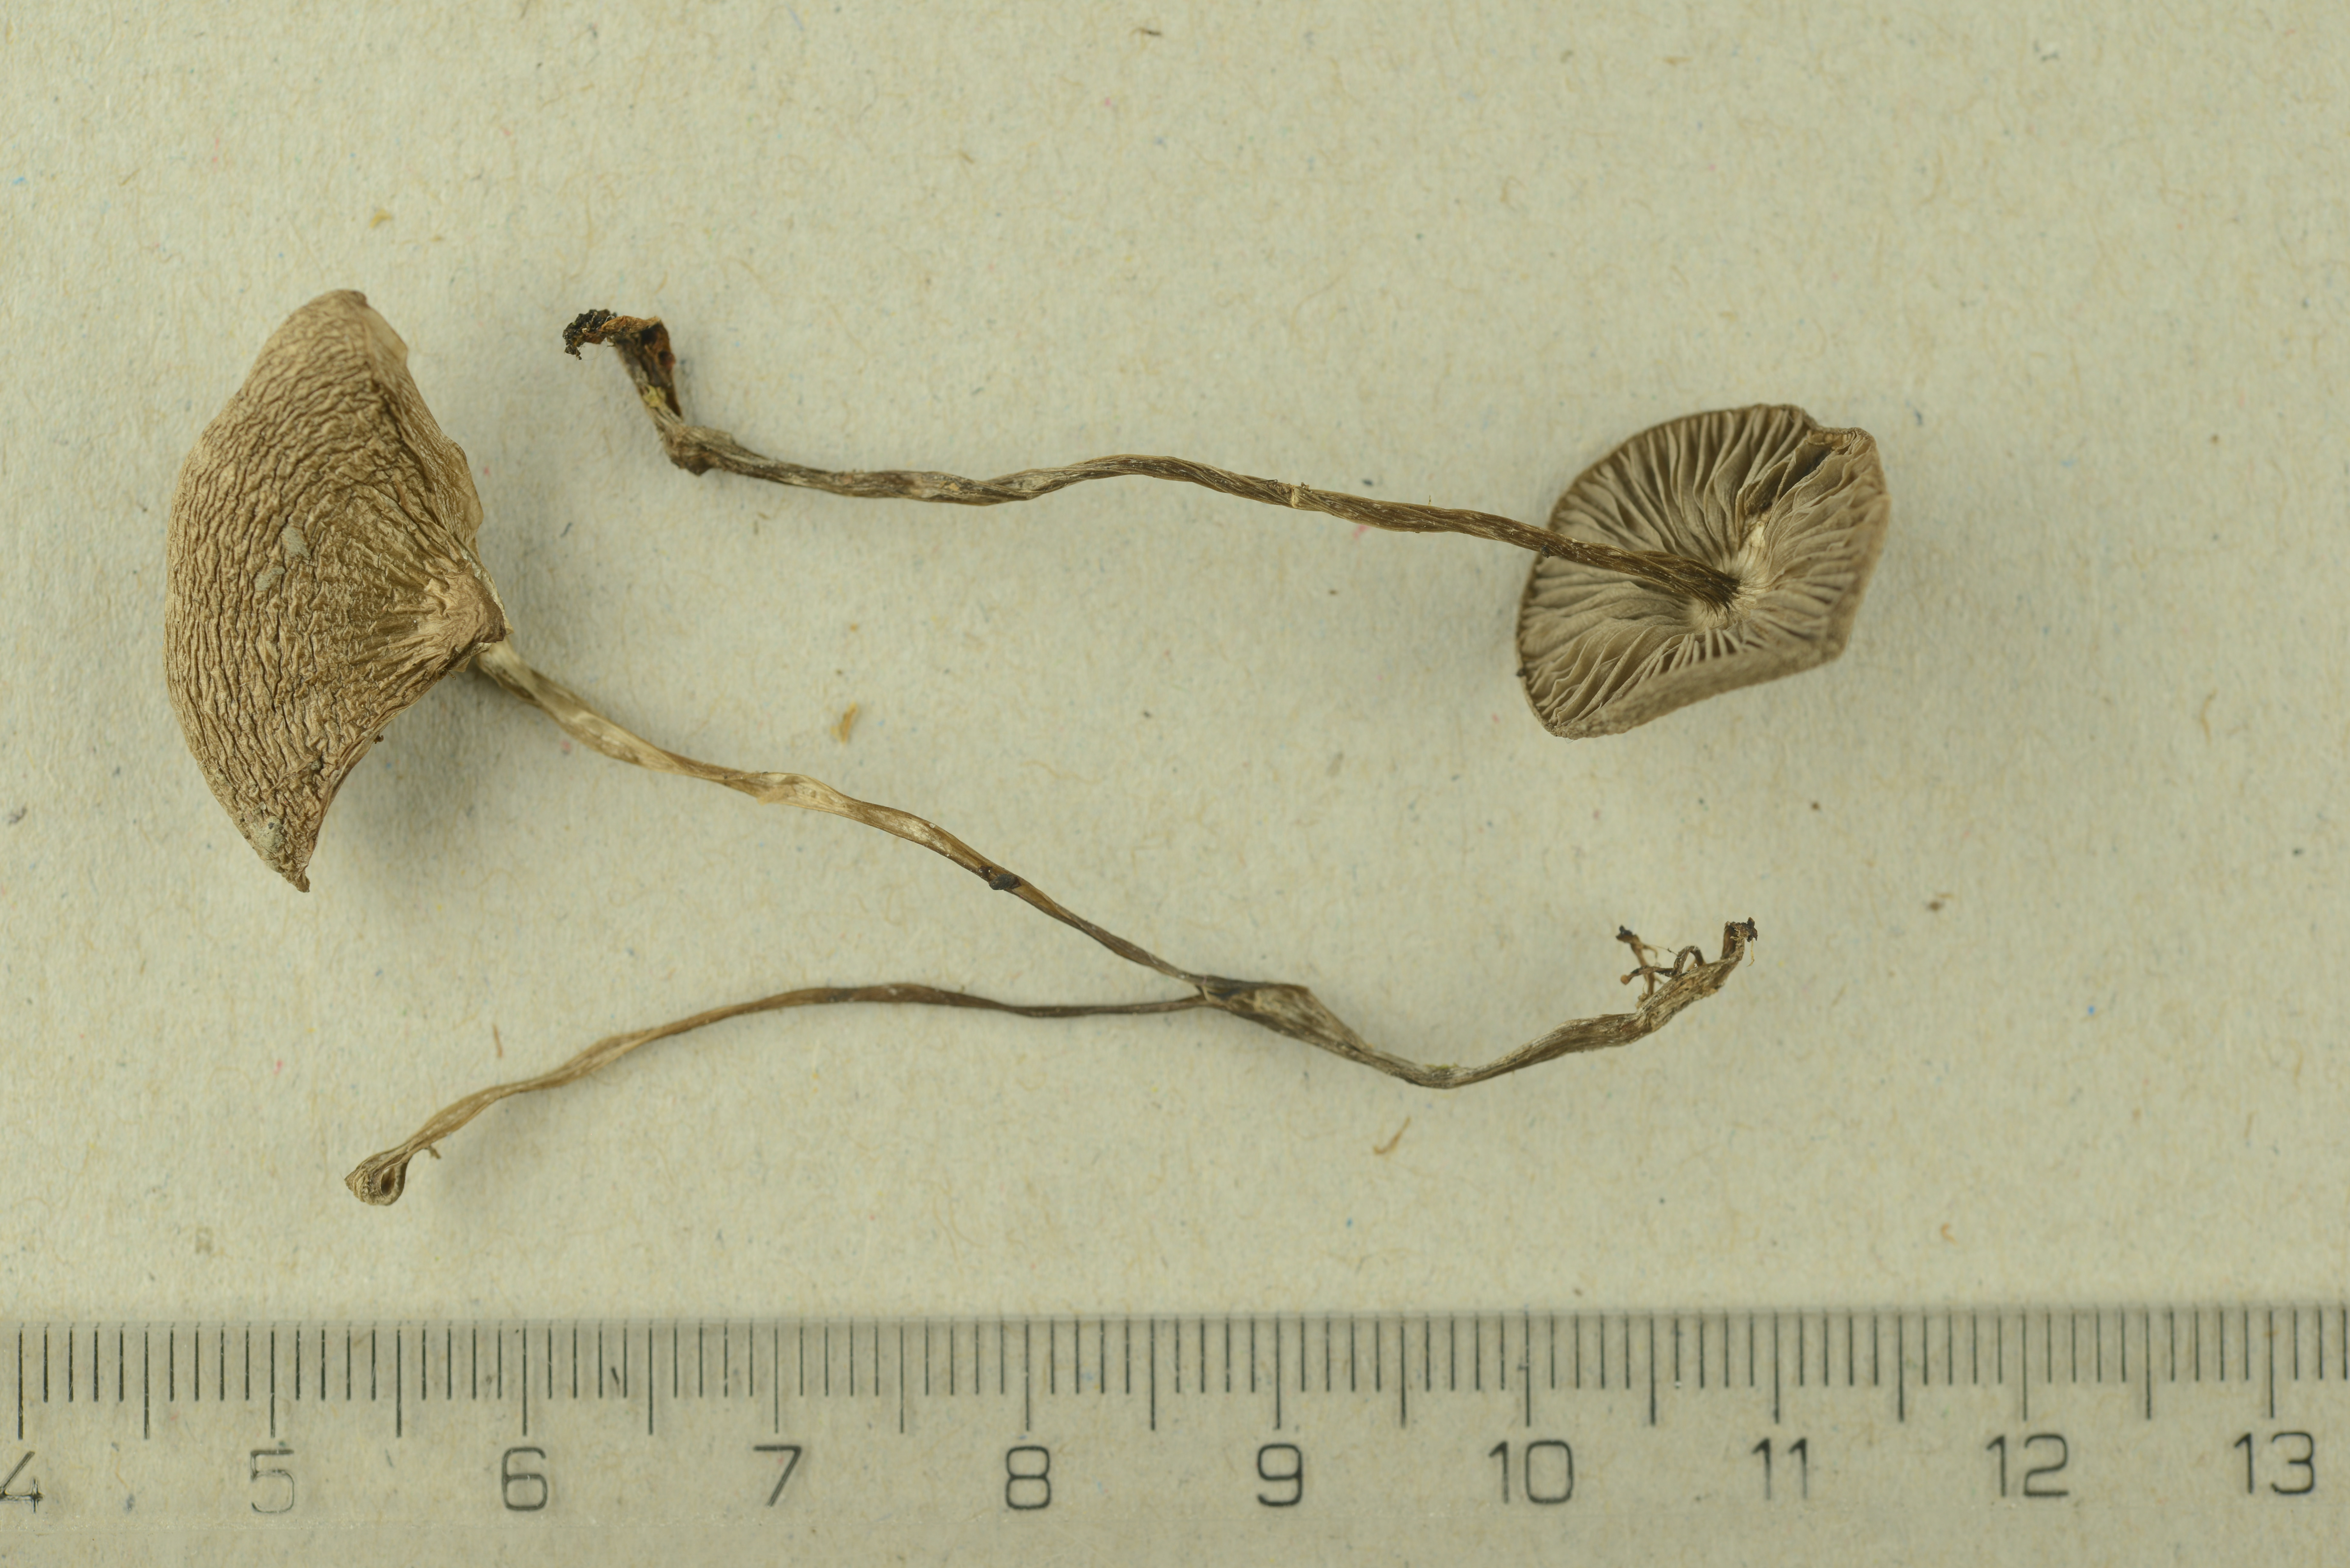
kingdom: Fungi
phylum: Basidiomycota
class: Agaricomycetes
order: Agaricales
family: Lyophyllaceae
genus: Myochromella
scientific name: Myochromella boudieri
